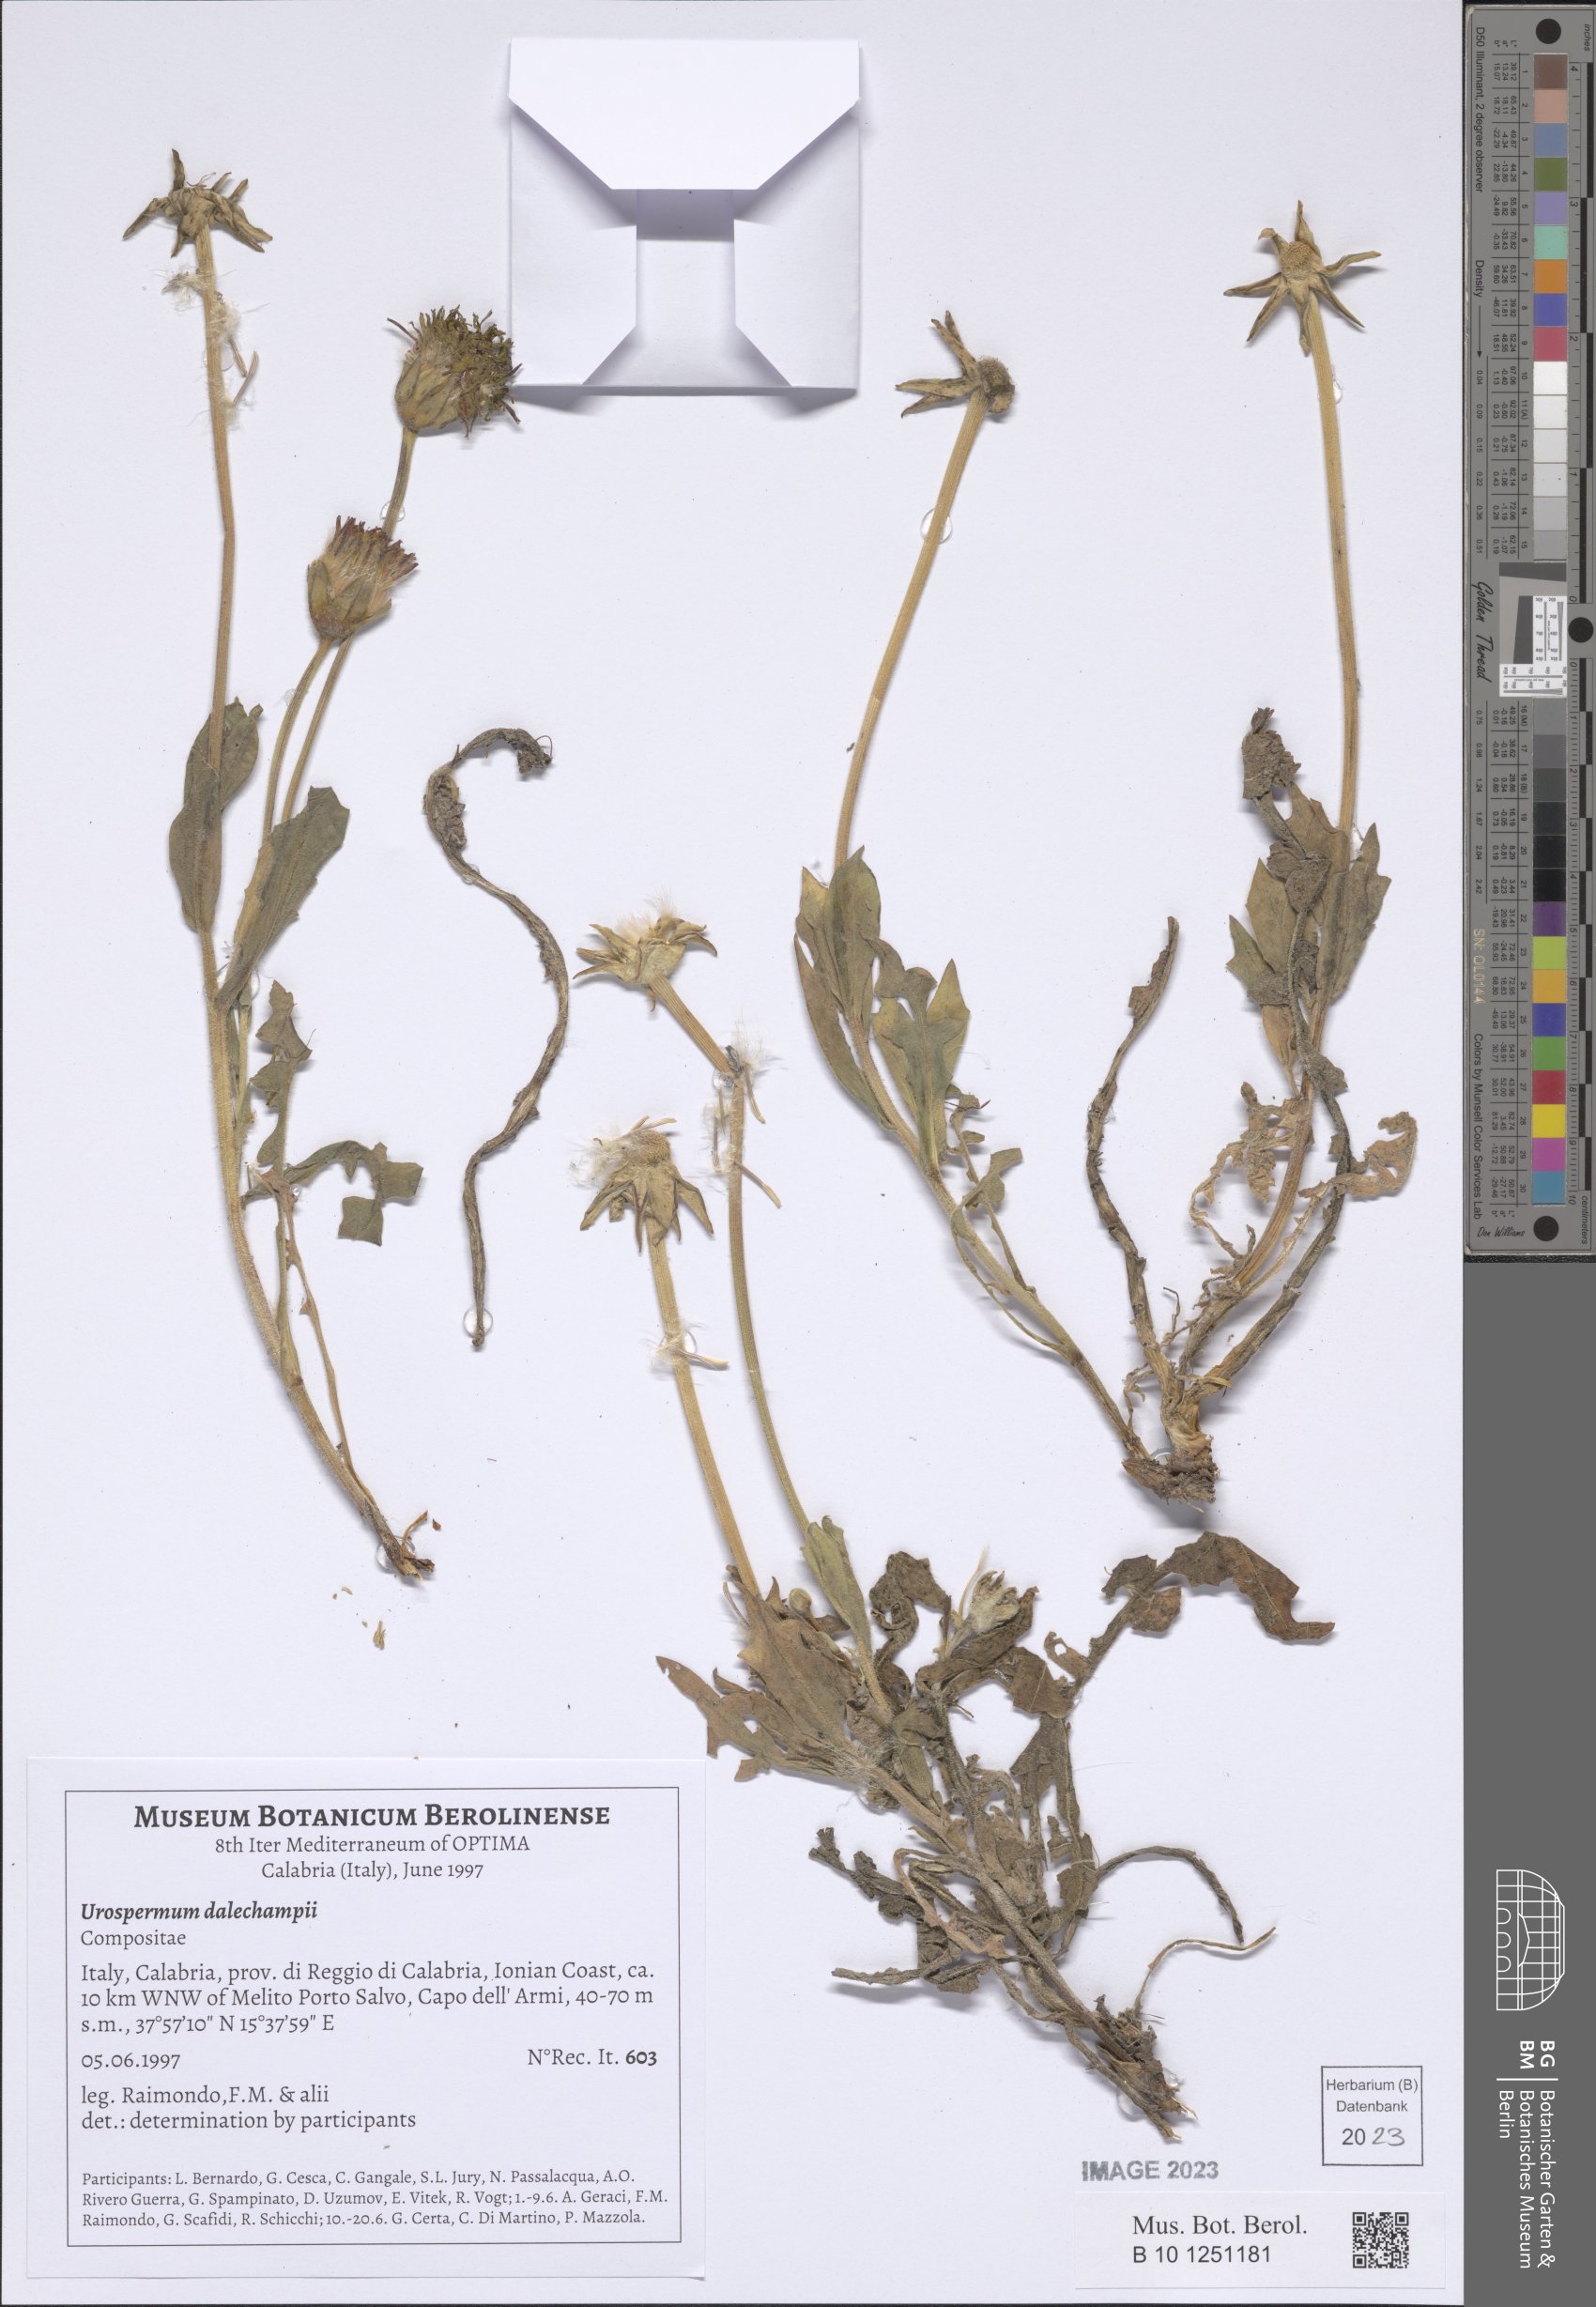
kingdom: Plantae
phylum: Tracheophyta
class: Magnoliopsida
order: Asterales
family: Asteraceae
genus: Urospermum
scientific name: Urospermum dalechampii
